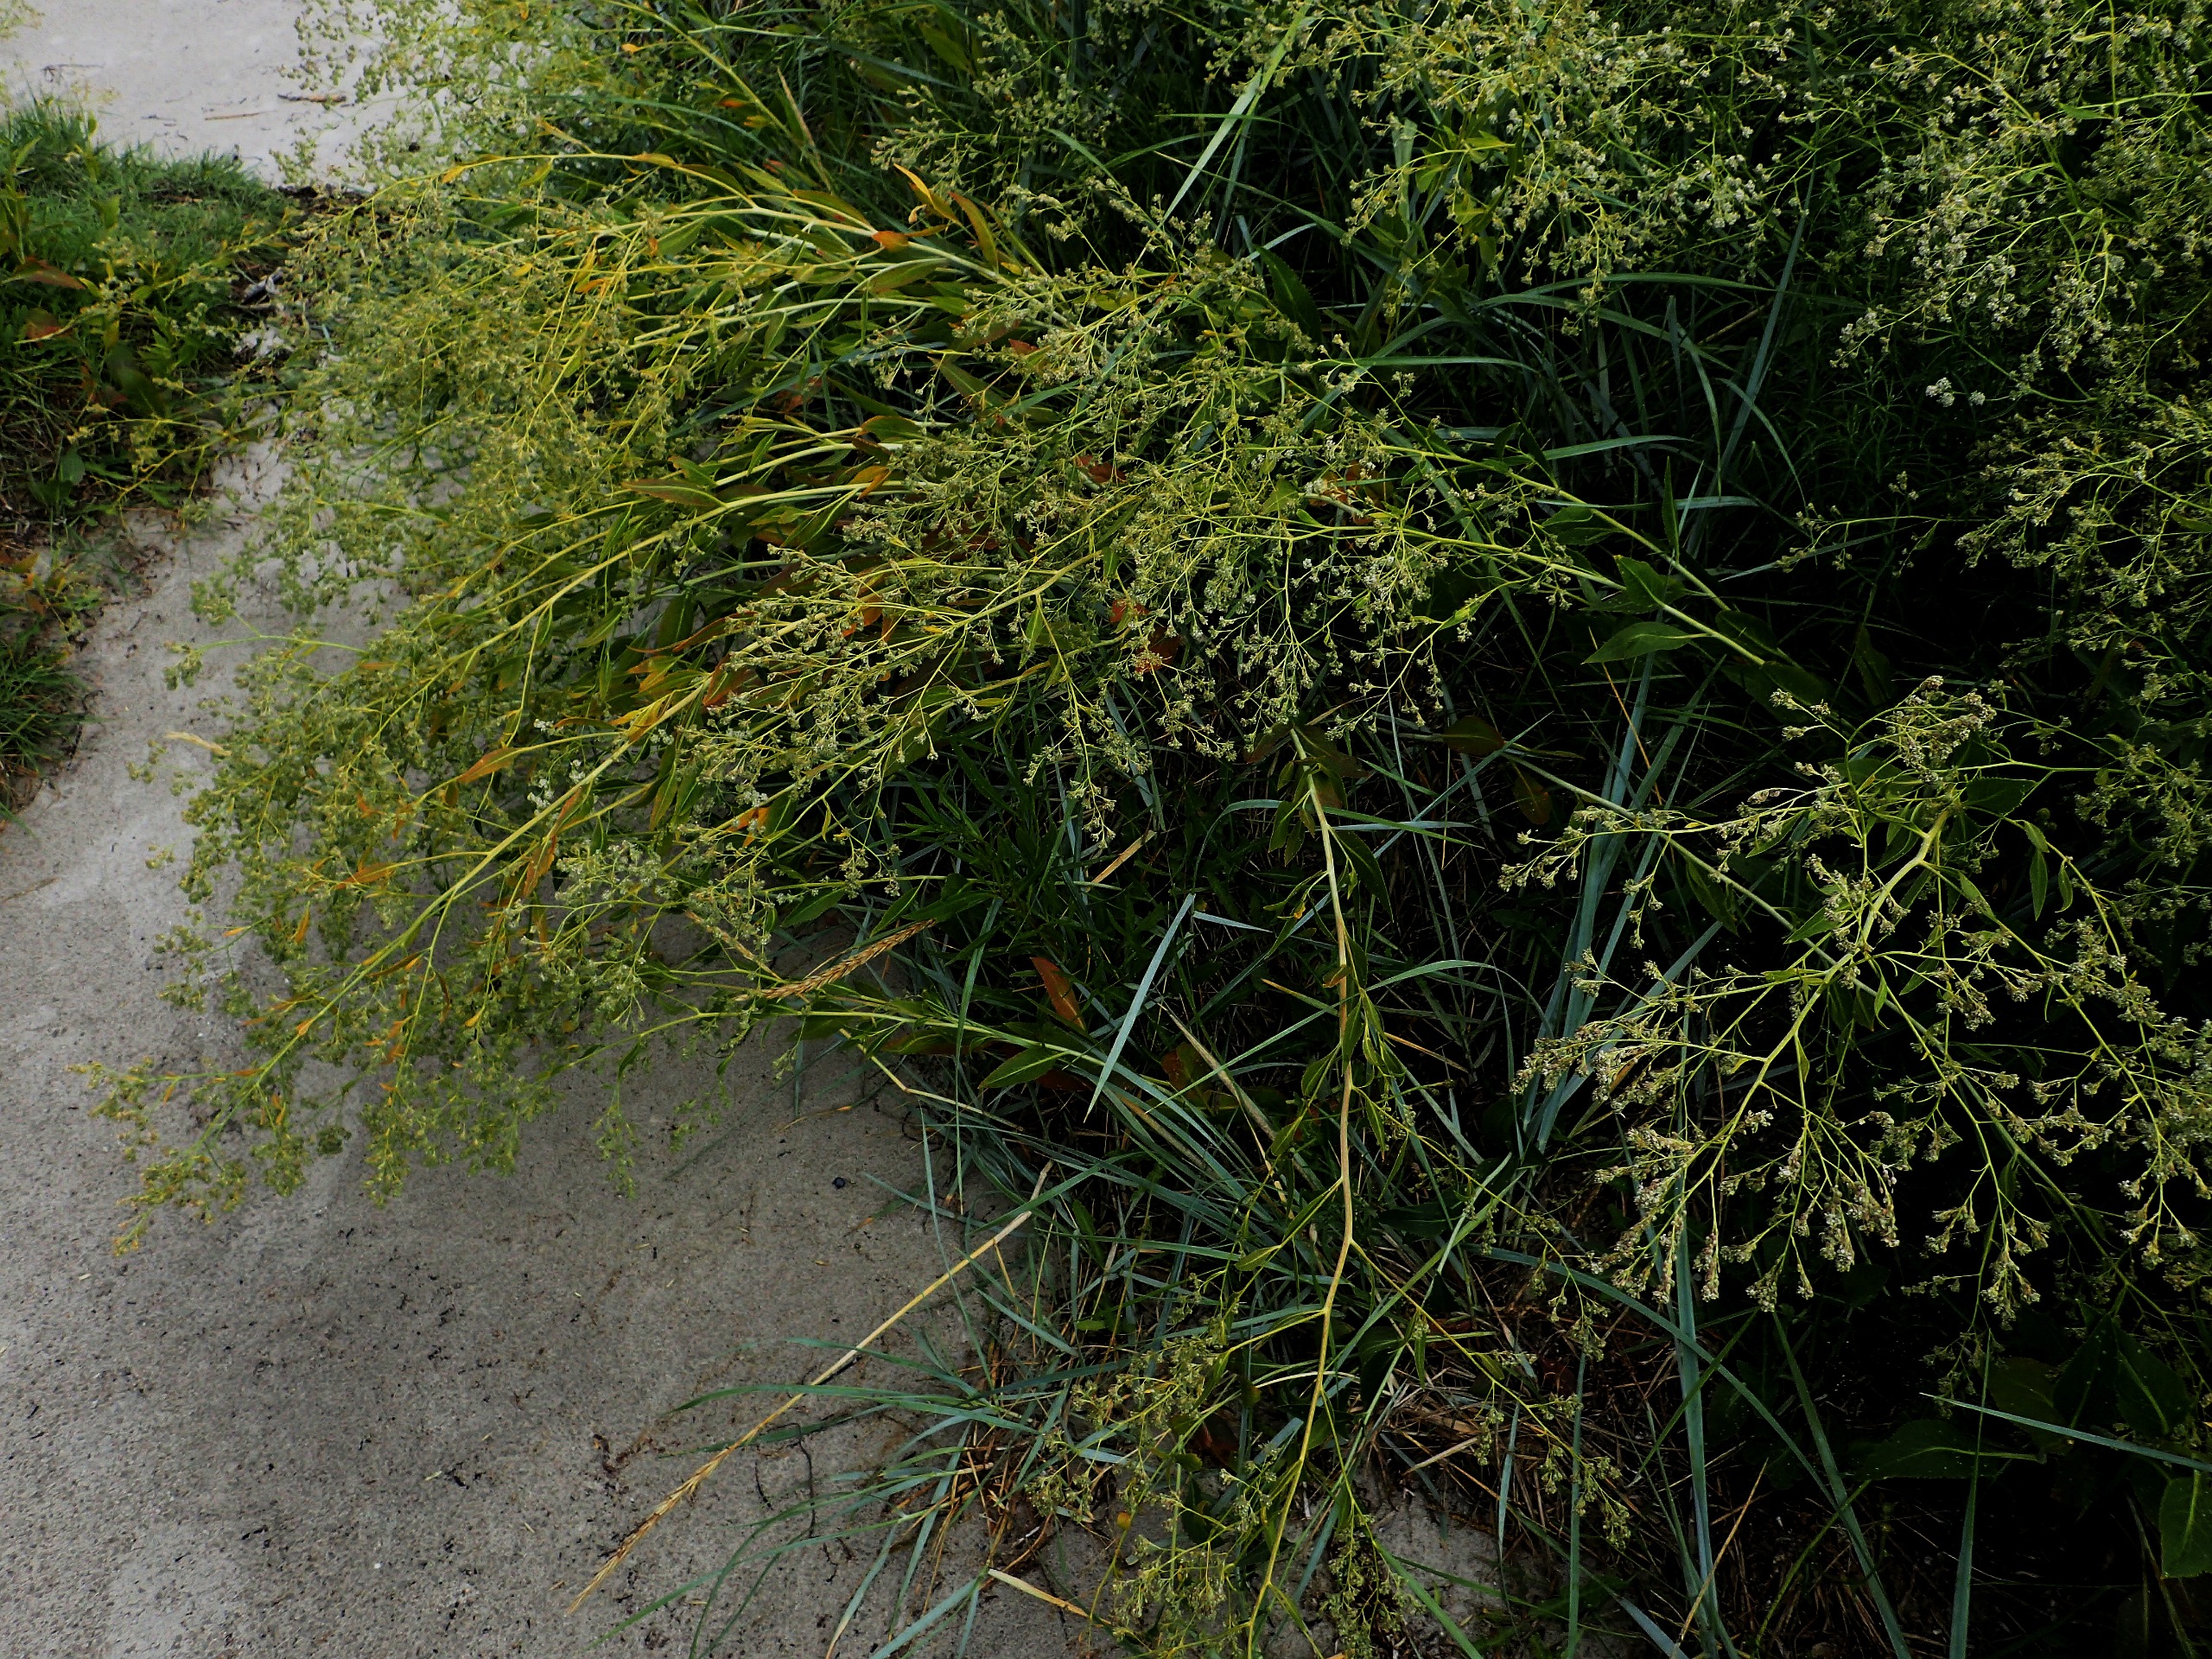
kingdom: Plantae
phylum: Tracheophyta
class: Magnoliopsida
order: Brassicales
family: Brassicaceae
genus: Lepidium
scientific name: Lepidium latifolium
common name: Strand-karse
